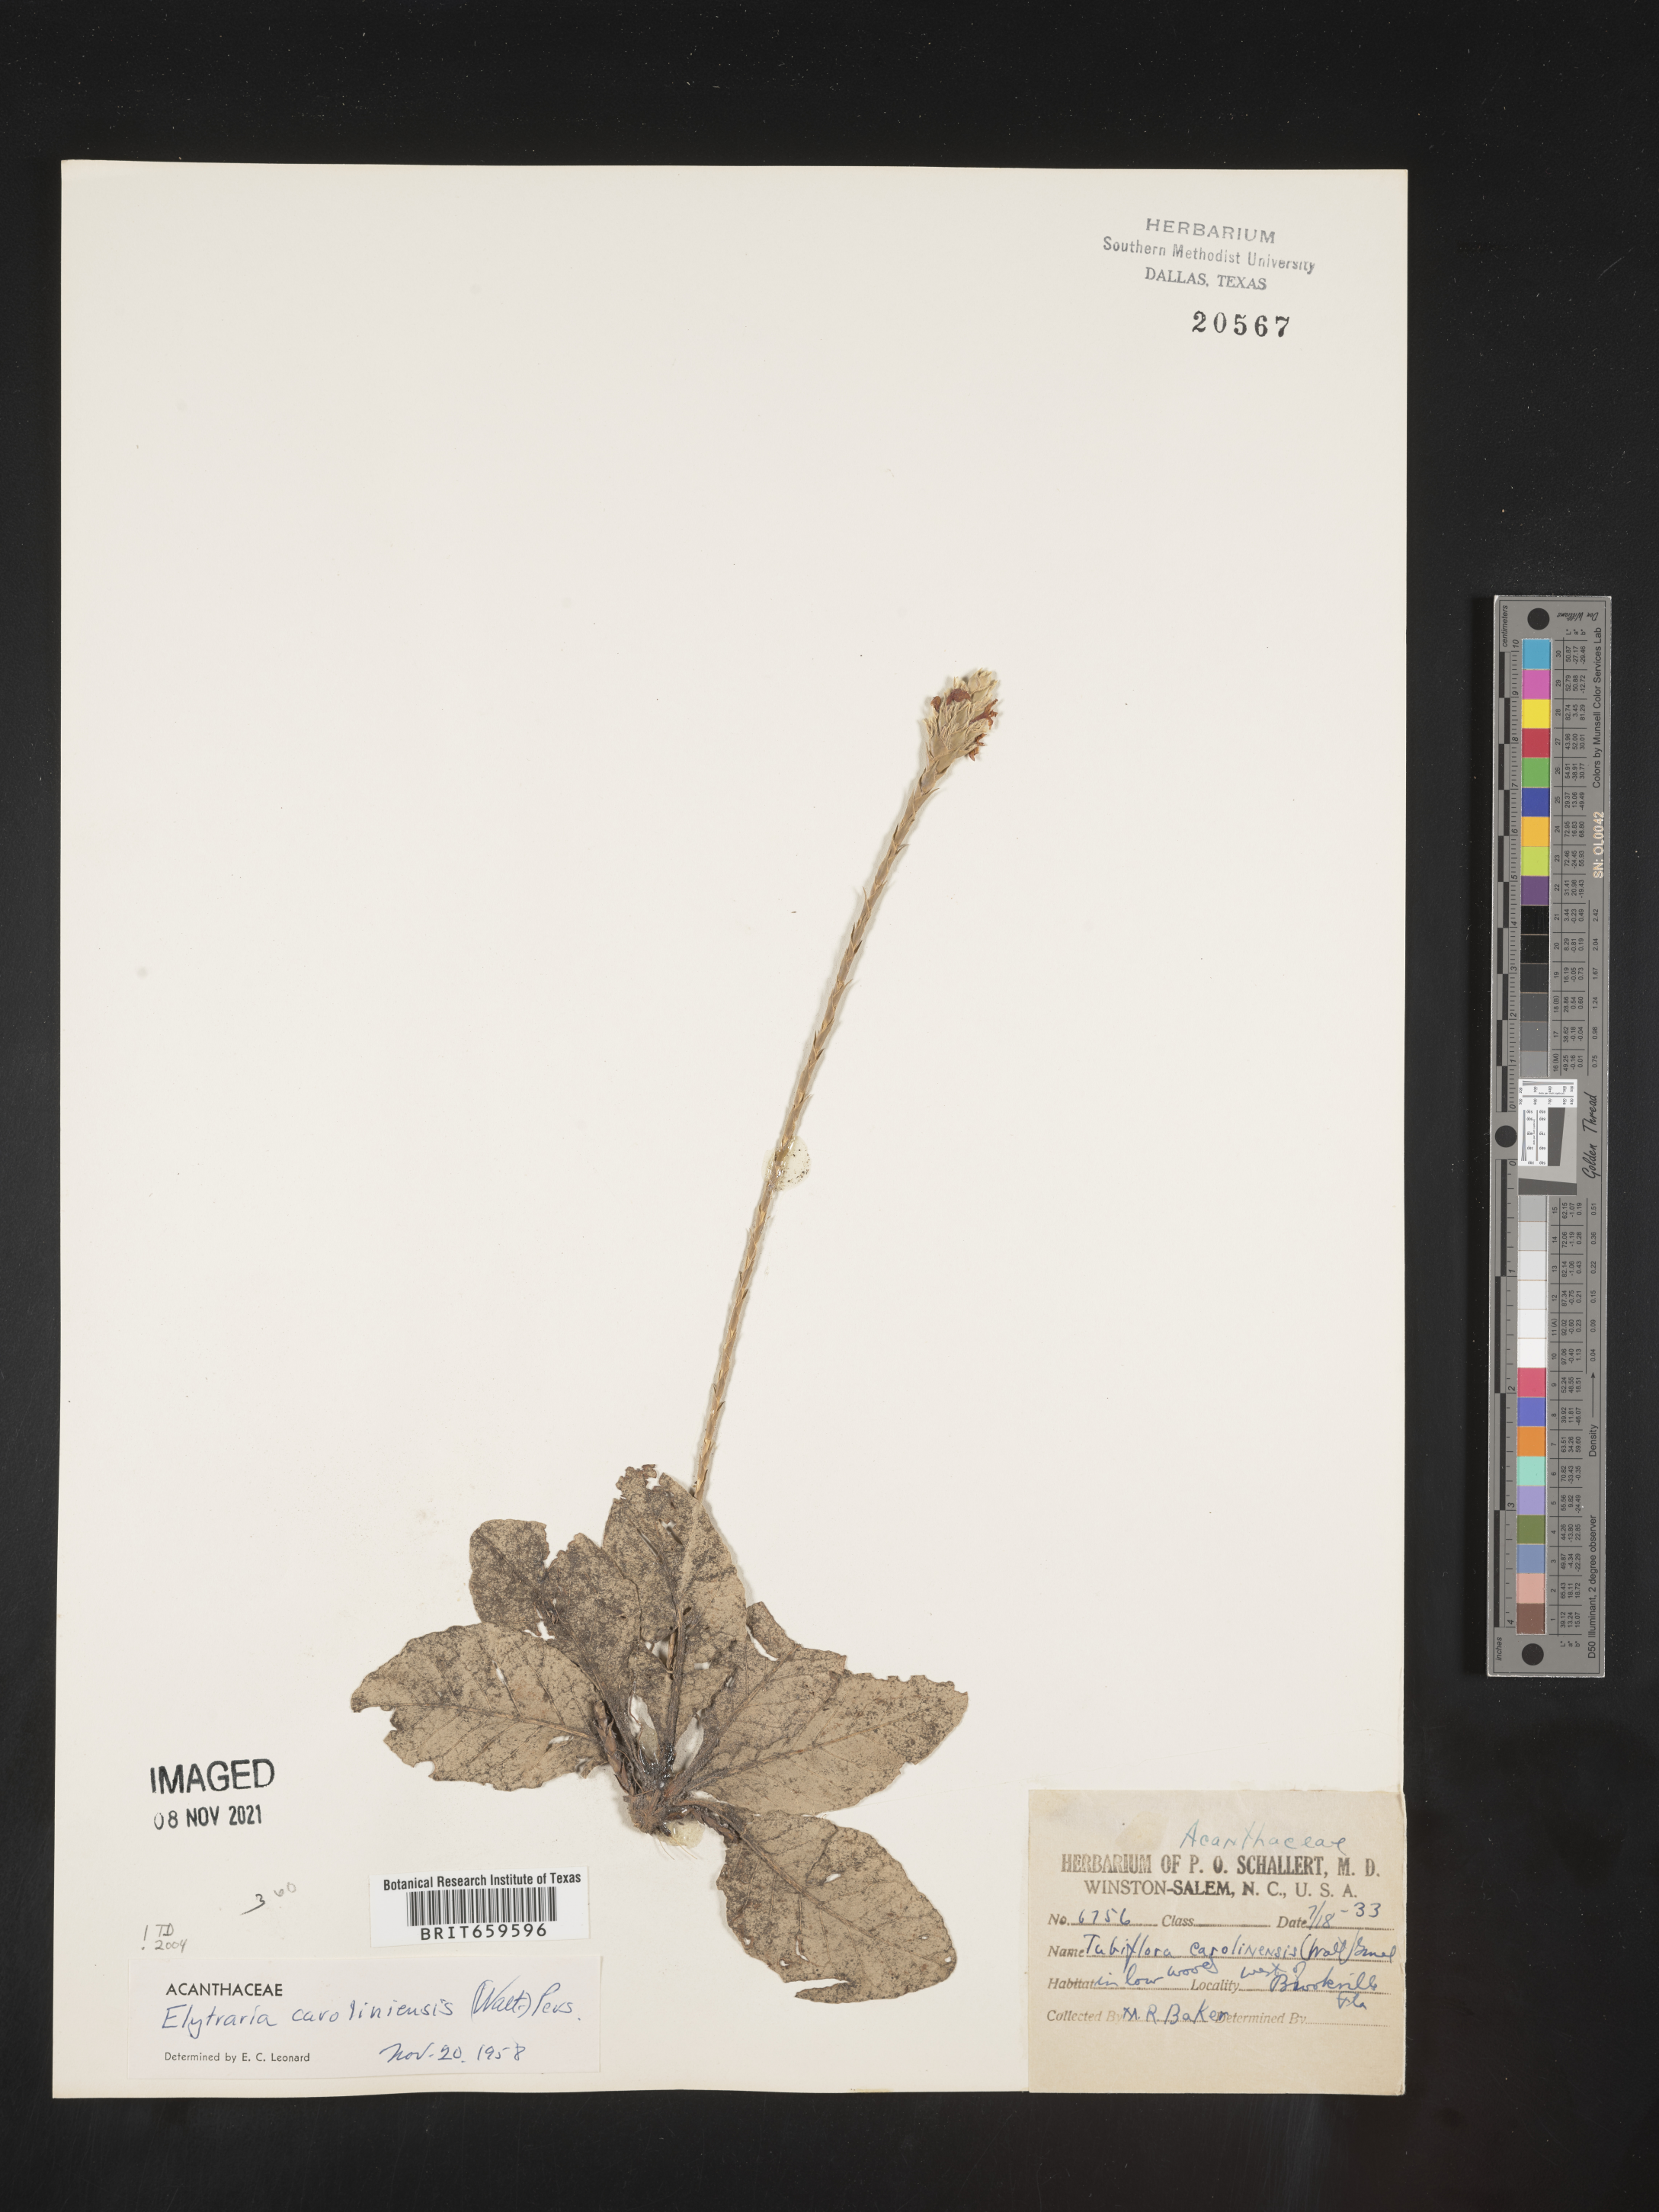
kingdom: Plantae
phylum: Tracheophyta
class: Magnoliopsida
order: Lamiales
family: Acanthaceae
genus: Elytraria
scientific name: Elytraria imbricata
